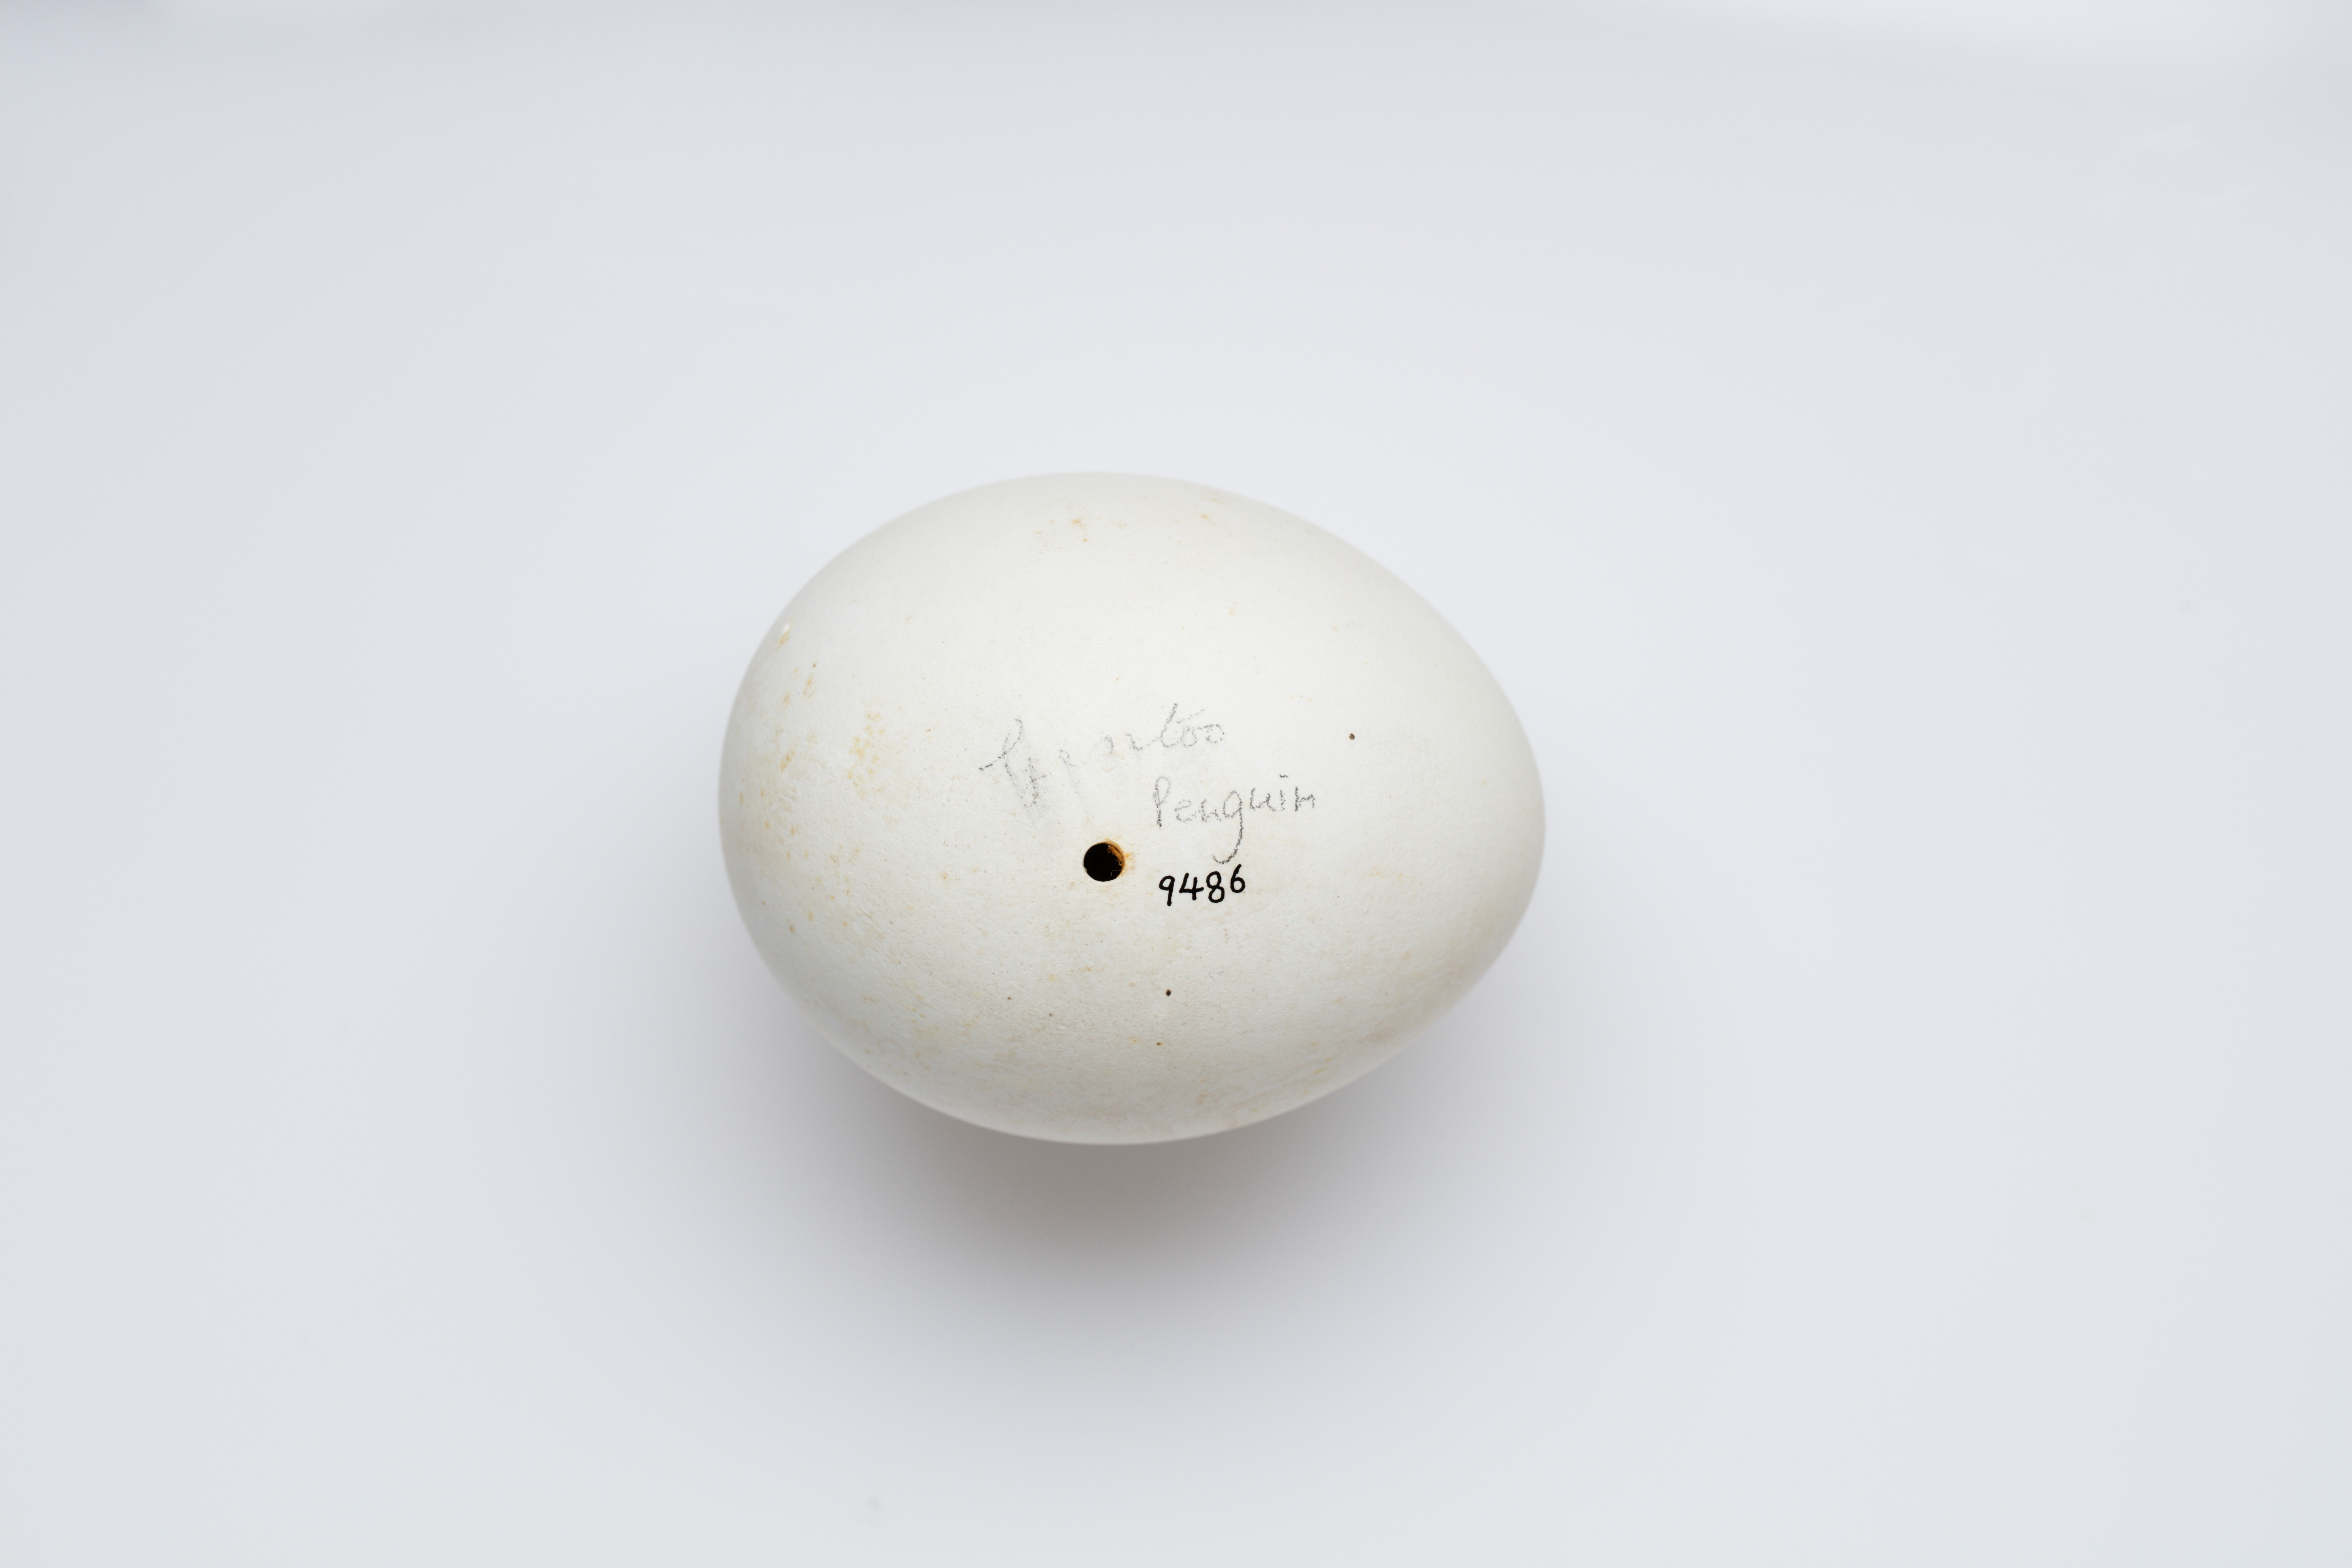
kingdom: Animalia
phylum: Chordata
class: Aves
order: Sphenisciformes
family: Spheniscidae
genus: Pygoscelis
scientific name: Pygoscelis papua
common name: Gentoo penguin
